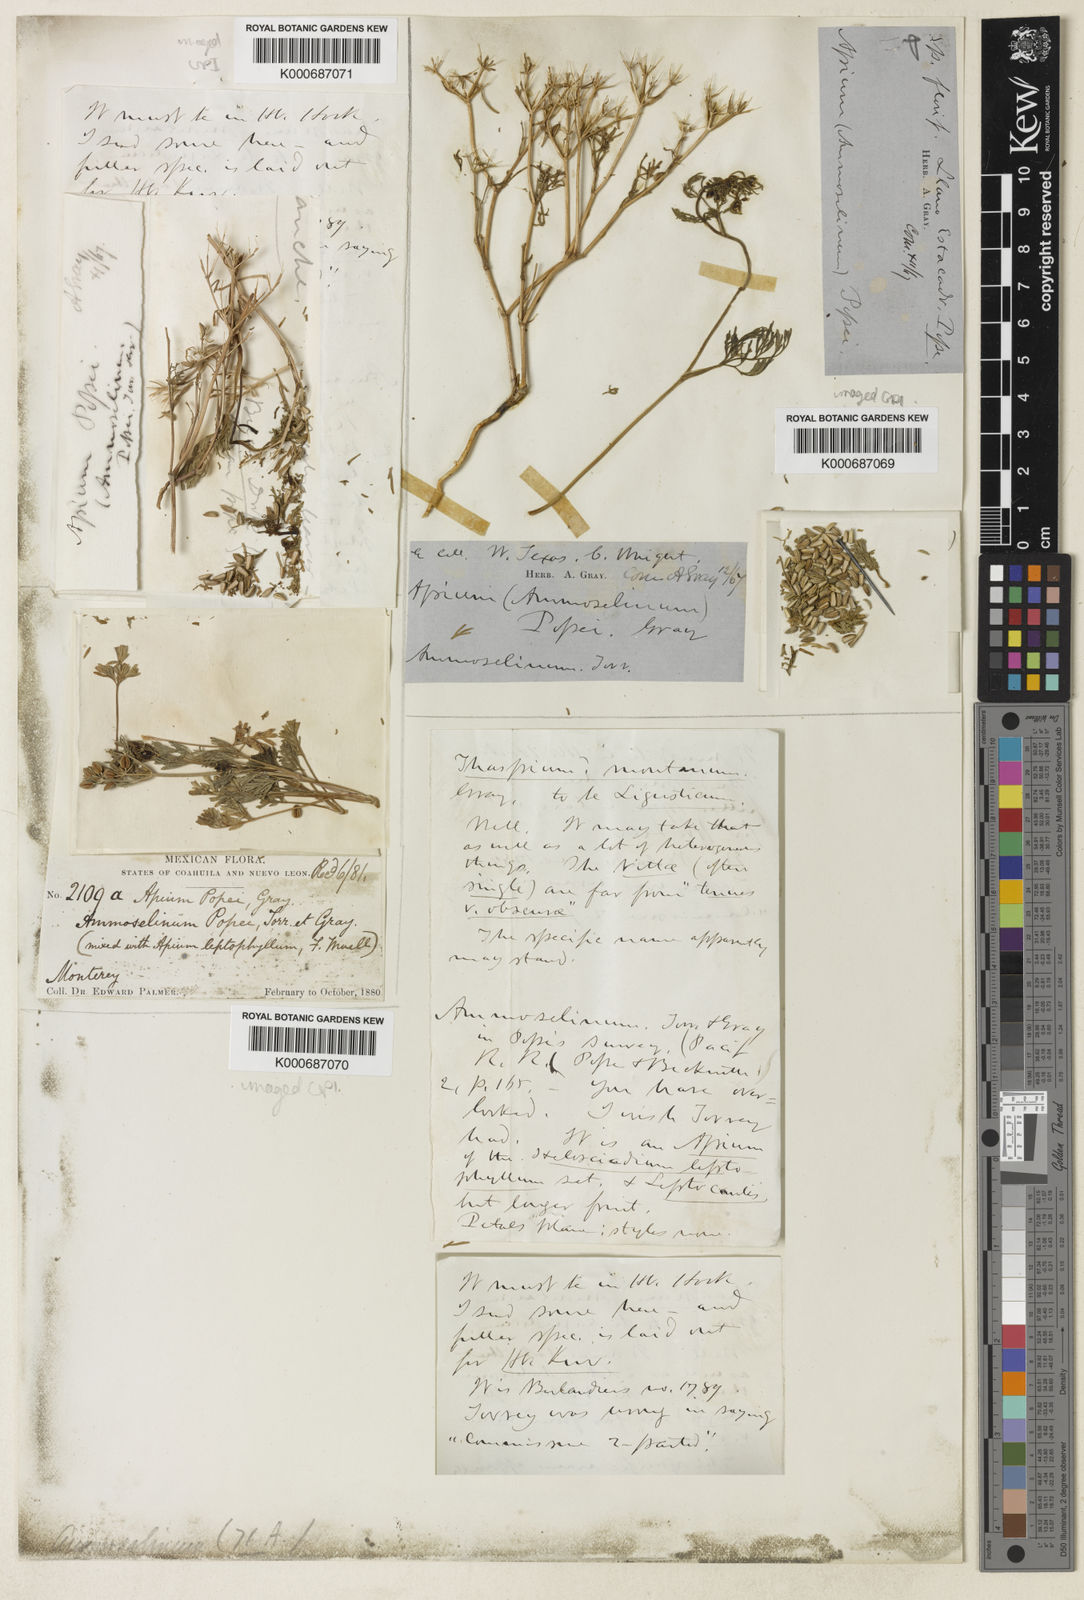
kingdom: Plantae
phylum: Tracheophyta
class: Magnoliopsida
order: Apiales
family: Apiaceae
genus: Ammoselinum
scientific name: Ammoselinum popei
